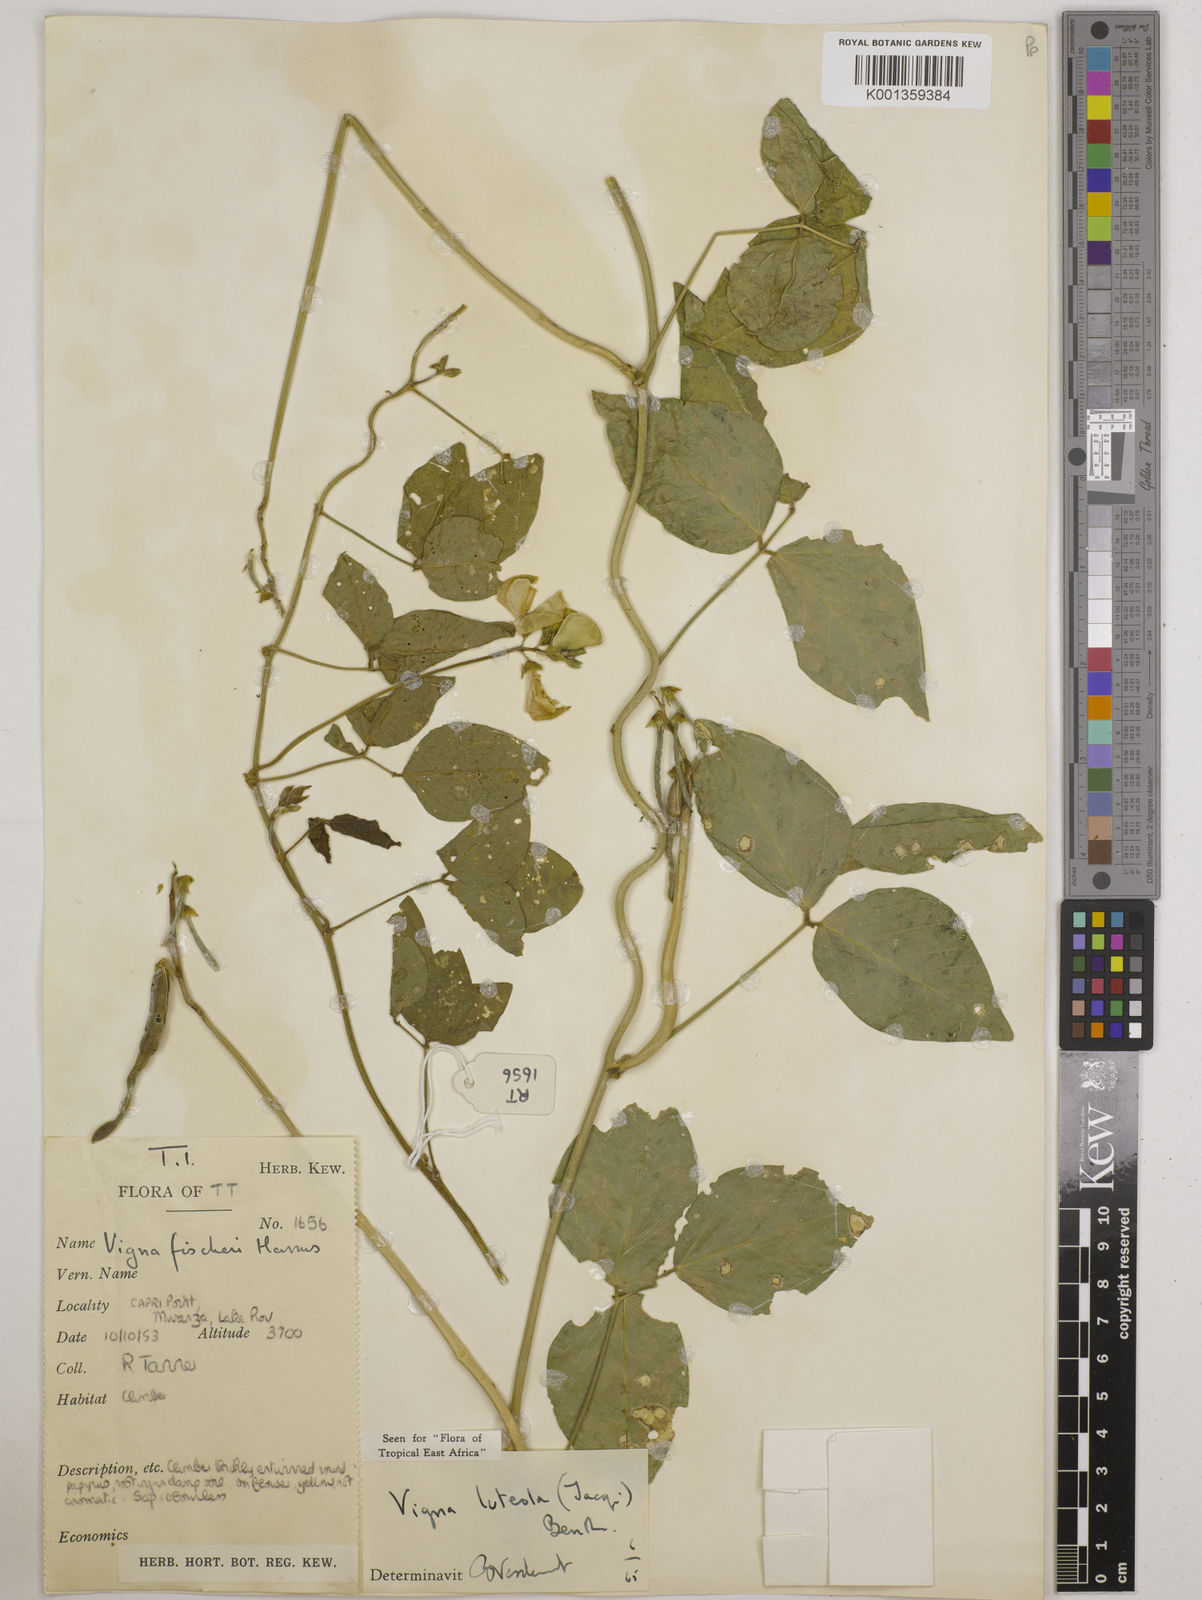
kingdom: Plantae
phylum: Tracheophyta
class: Magnoliopsida
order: Fabales
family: Fabaceae
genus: Vigna
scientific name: Vigna luteola
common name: Hairypod cowpea
